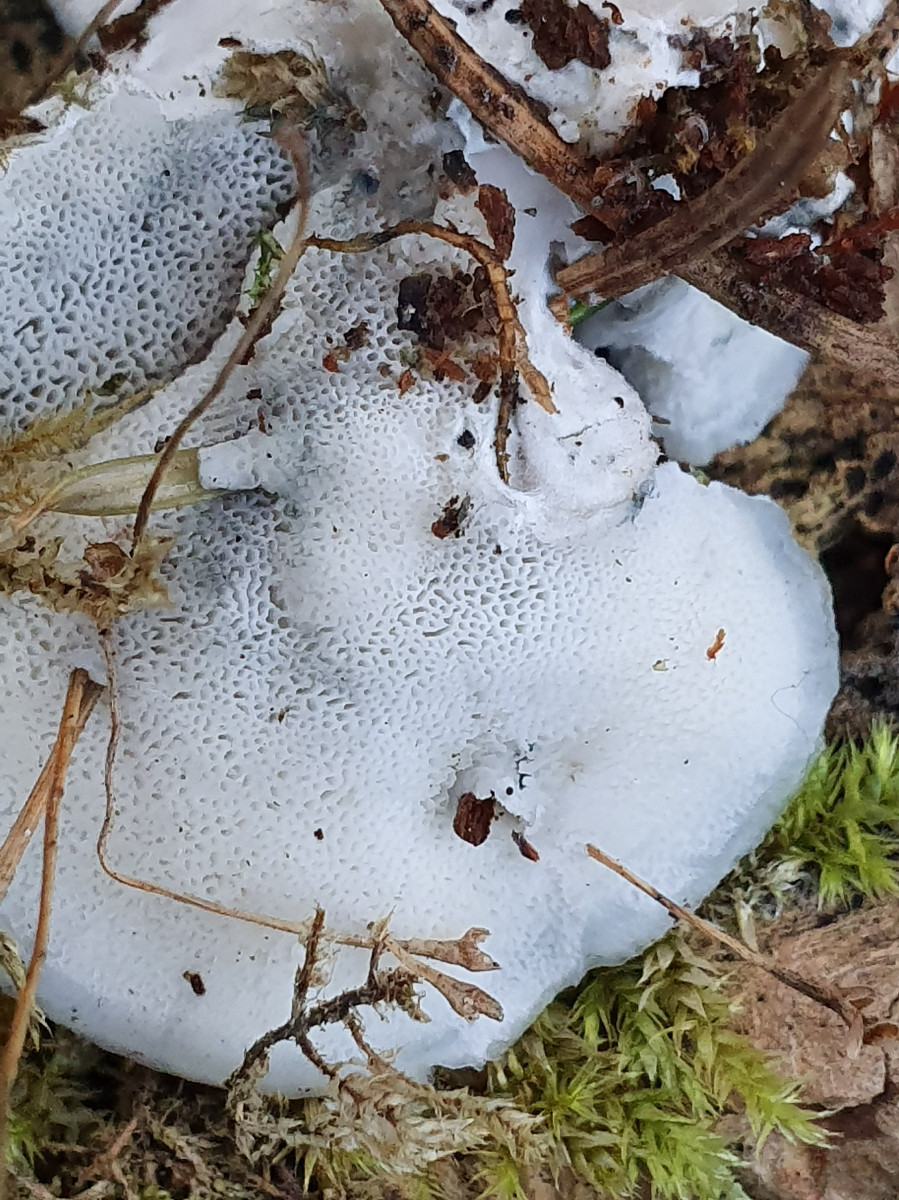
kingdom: Fungi
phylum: Basidiomycota
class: Agaricomycetes
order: Polyporales
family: Polyporaceae
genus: Cyanosporus
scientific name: Cyanosporus caesius
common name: blålig kødporesvamp
